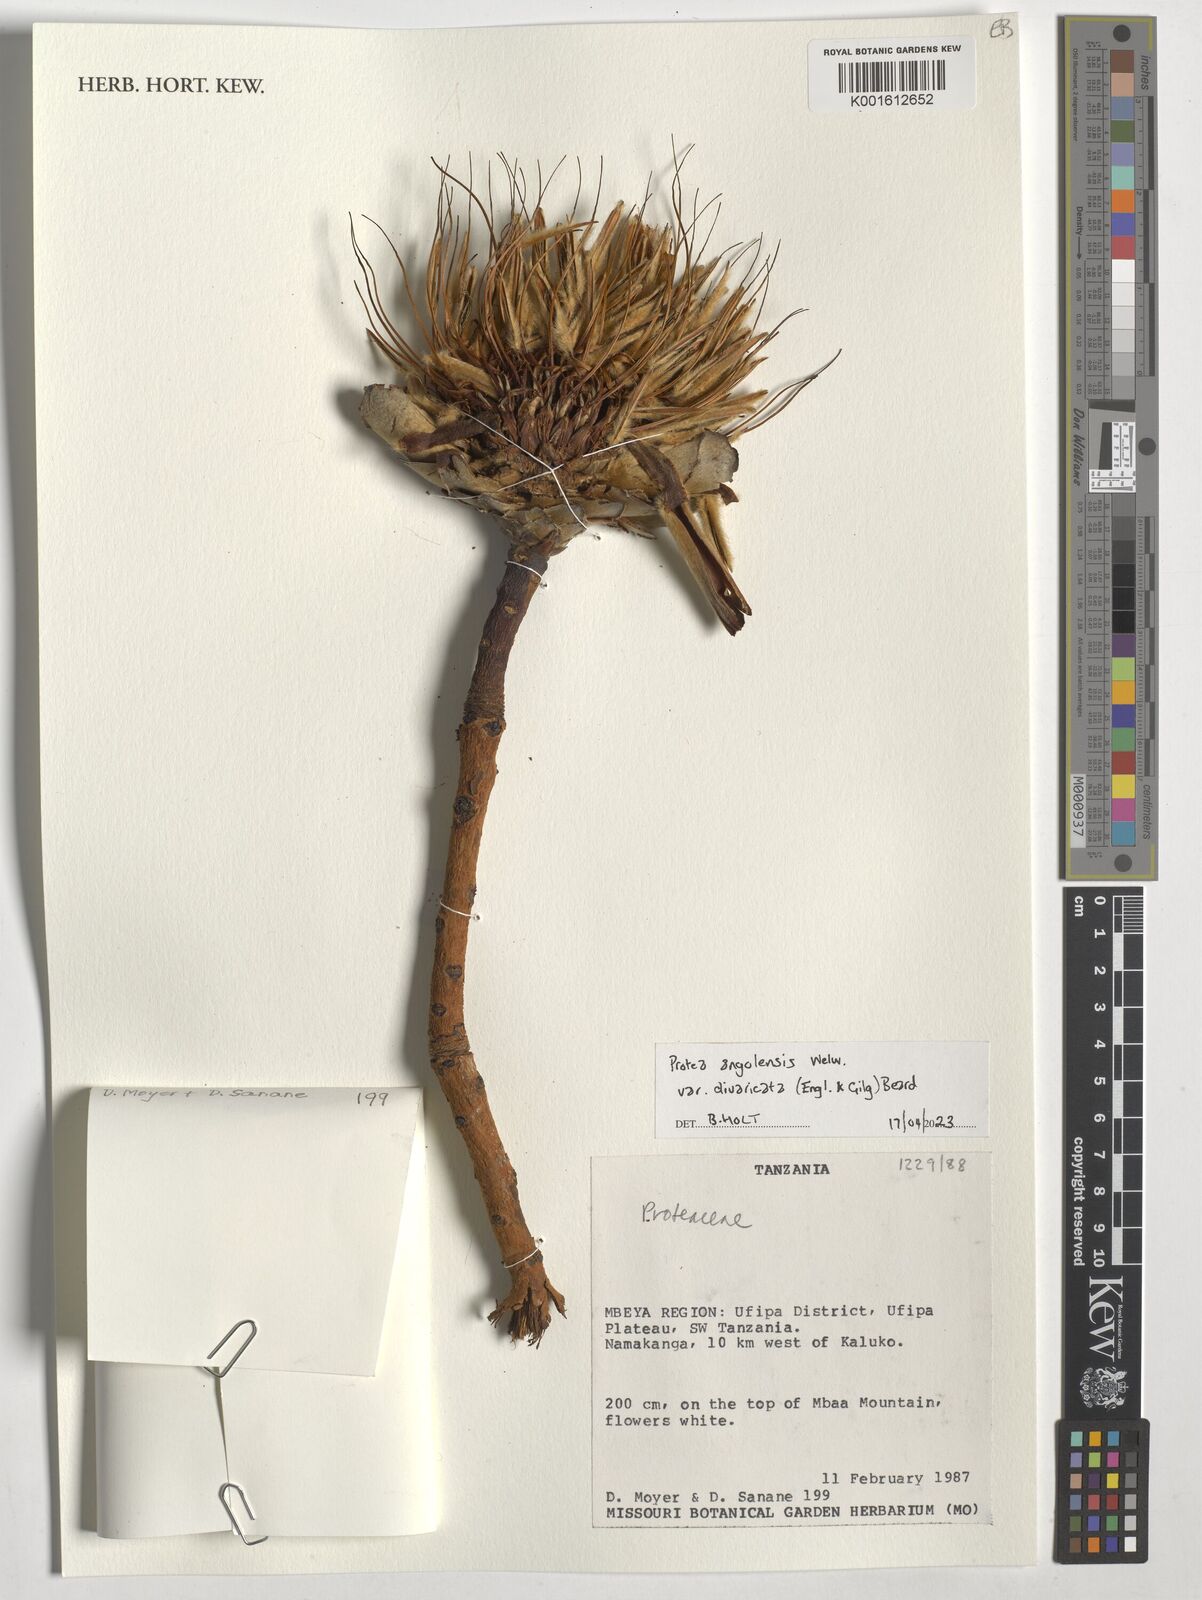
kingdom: Plantae
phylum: Tracheophyta
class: Magnoliopsida
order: Proteales
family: Proteaceae
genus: Protea
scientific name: Protea angolensis
